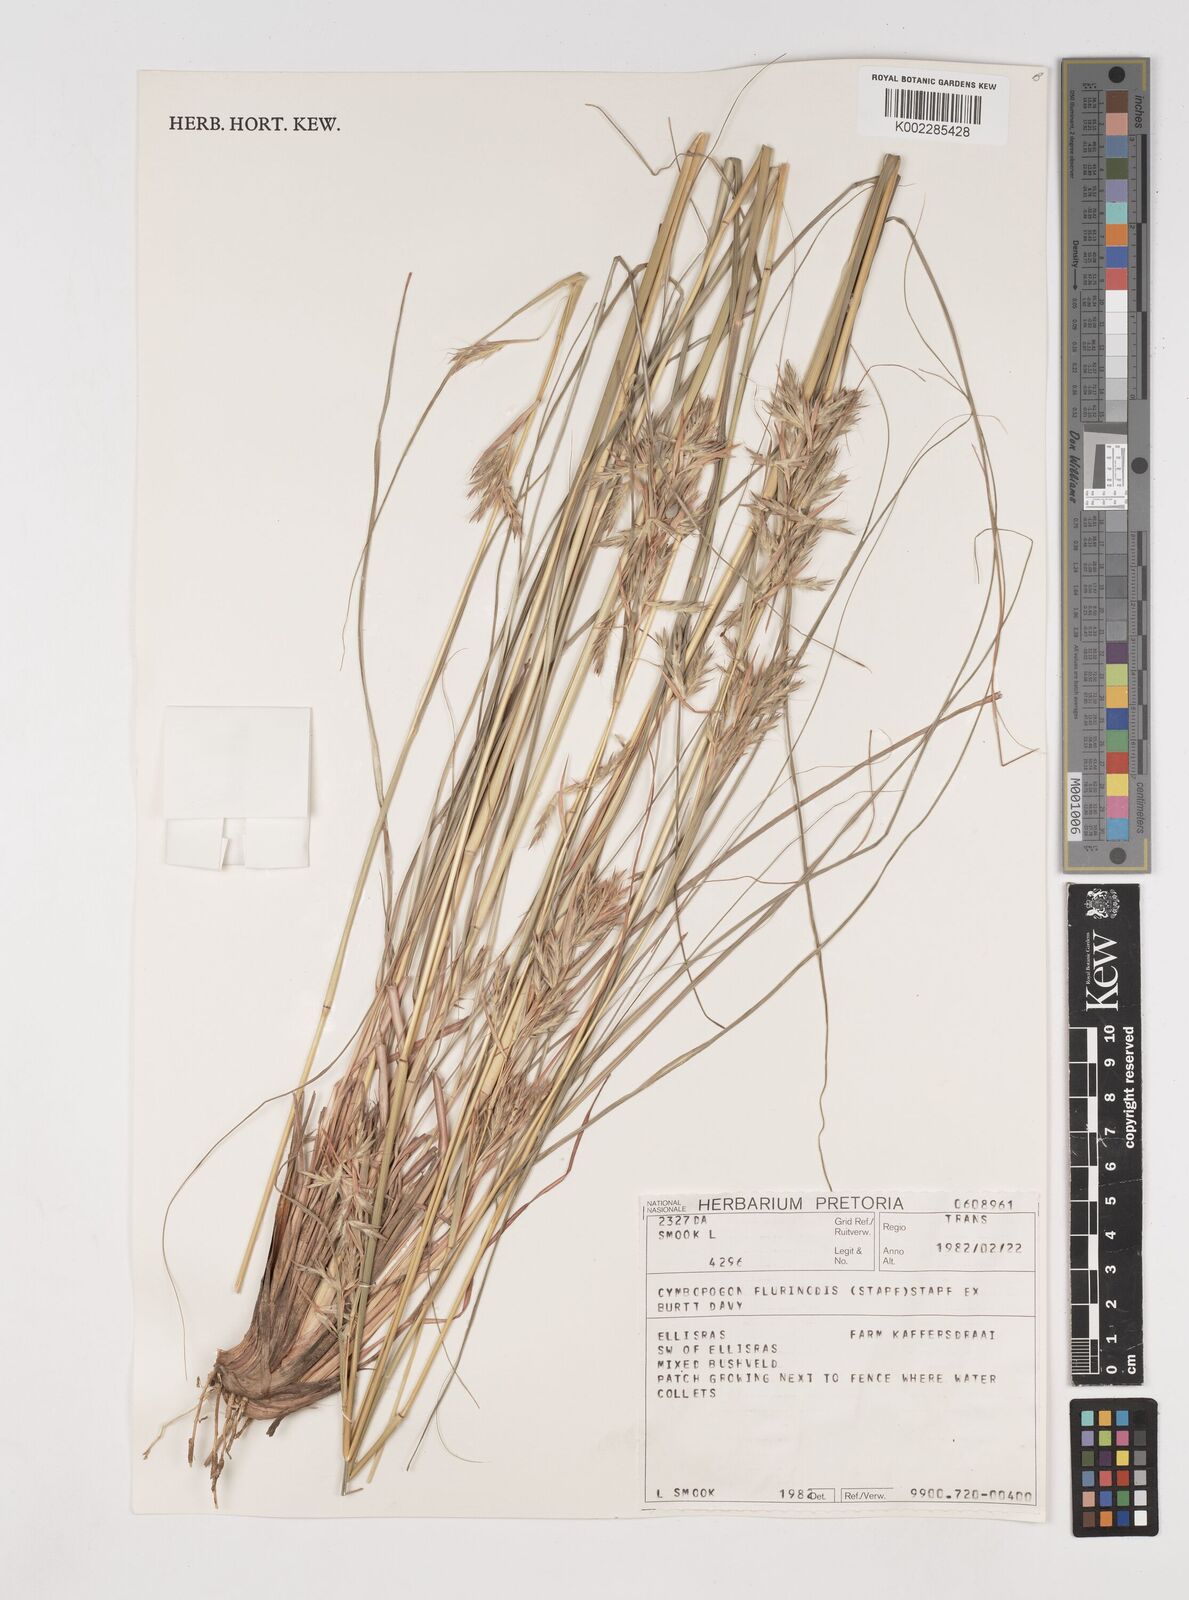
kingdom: Plantae
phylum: Tracheophyta
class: Liliopsida
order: Poales
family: Poaceae
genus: Cymbopogon
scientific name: Cymbopogon
